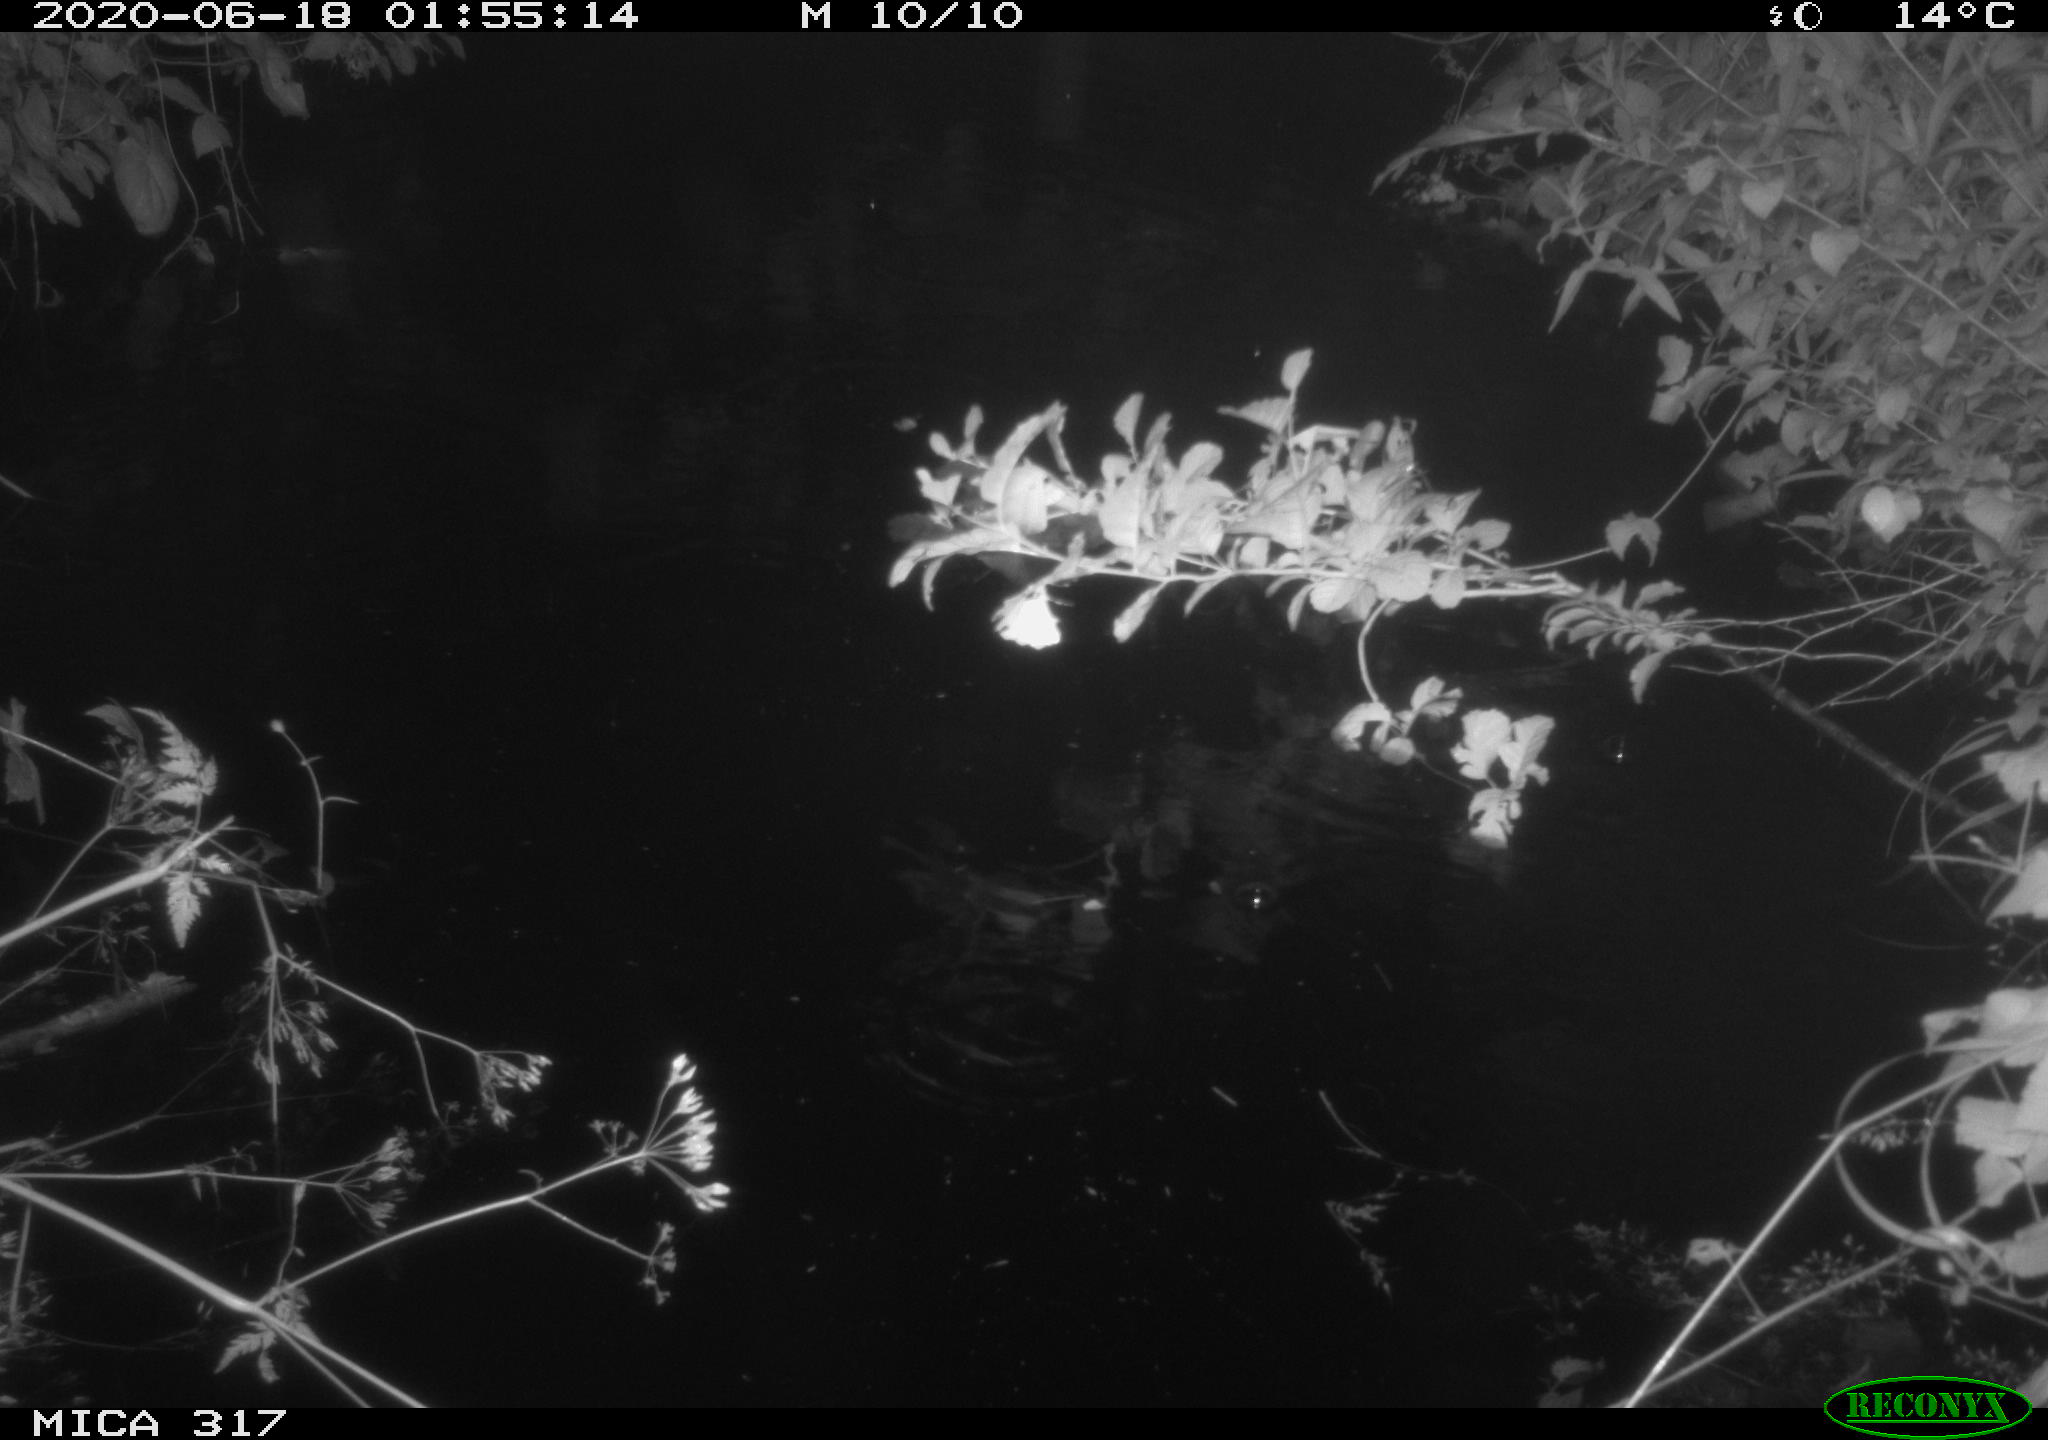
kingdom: Animalia
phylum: Chordata
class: Aves
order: Anseriformes
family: Anatidae
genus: Anas
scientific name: Anas platyrhynchos
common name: Mallard
